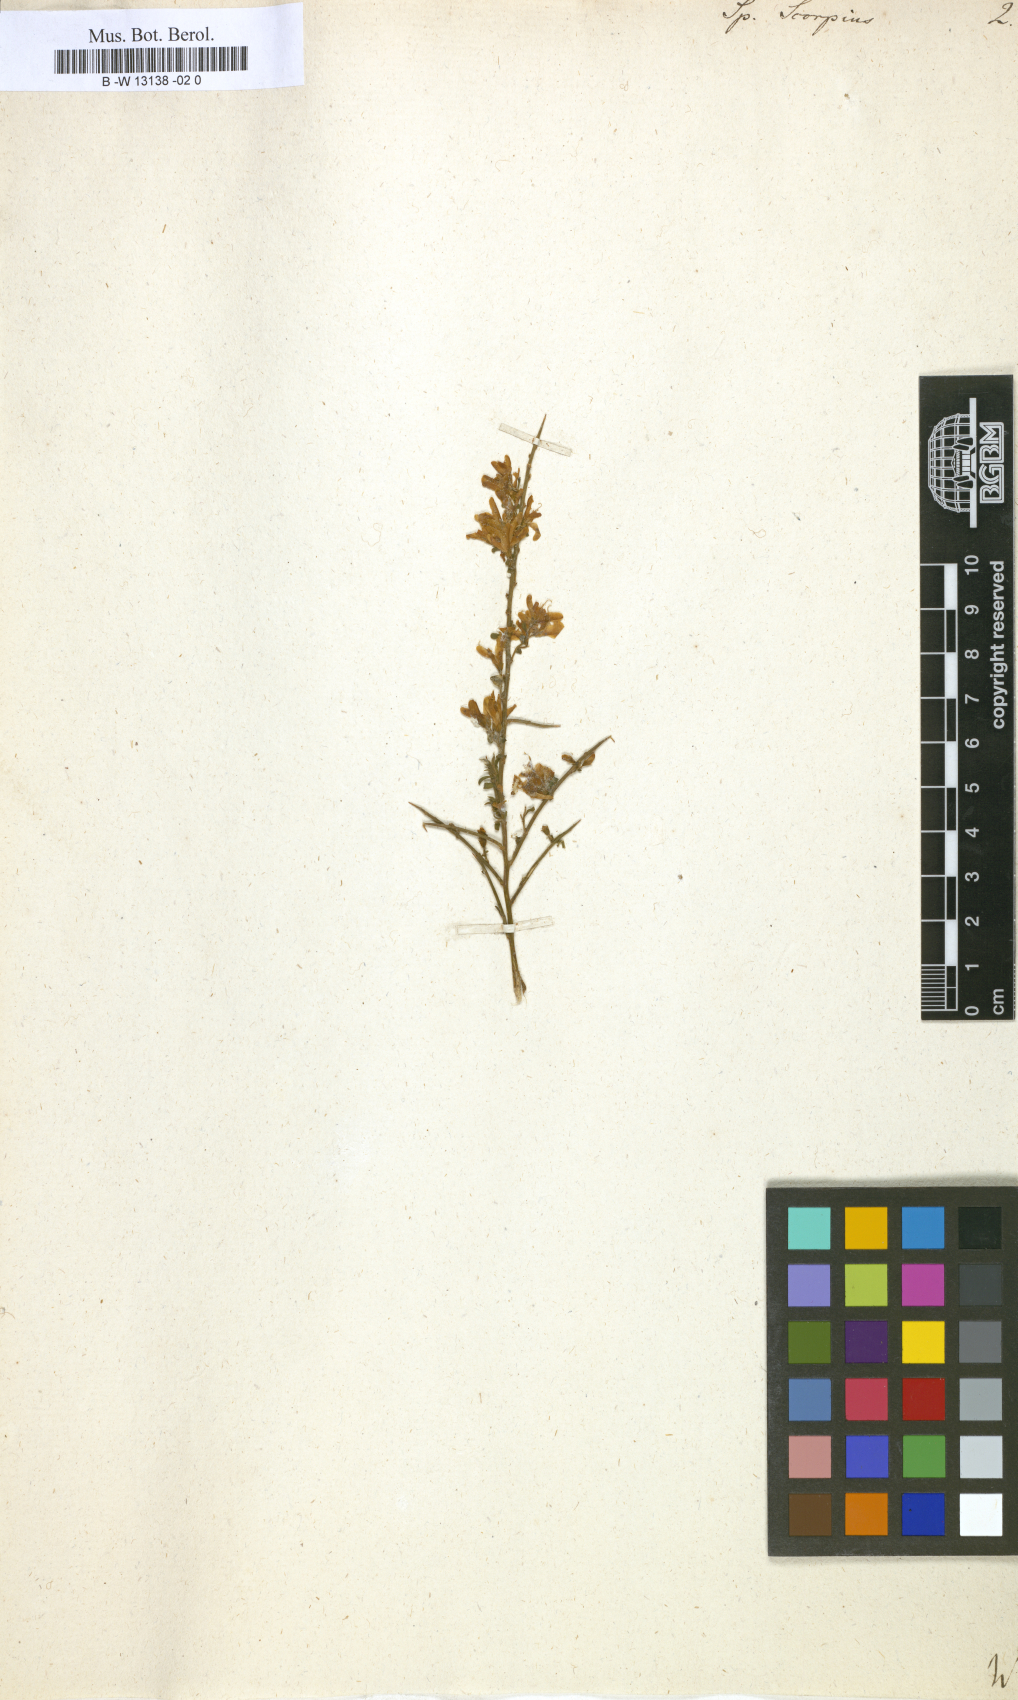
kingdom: Plantae
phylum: Tracheophyta
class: Magnoliopsida
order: Fabales
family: Fabaceae
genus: Genista
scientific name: Genista scorpius
